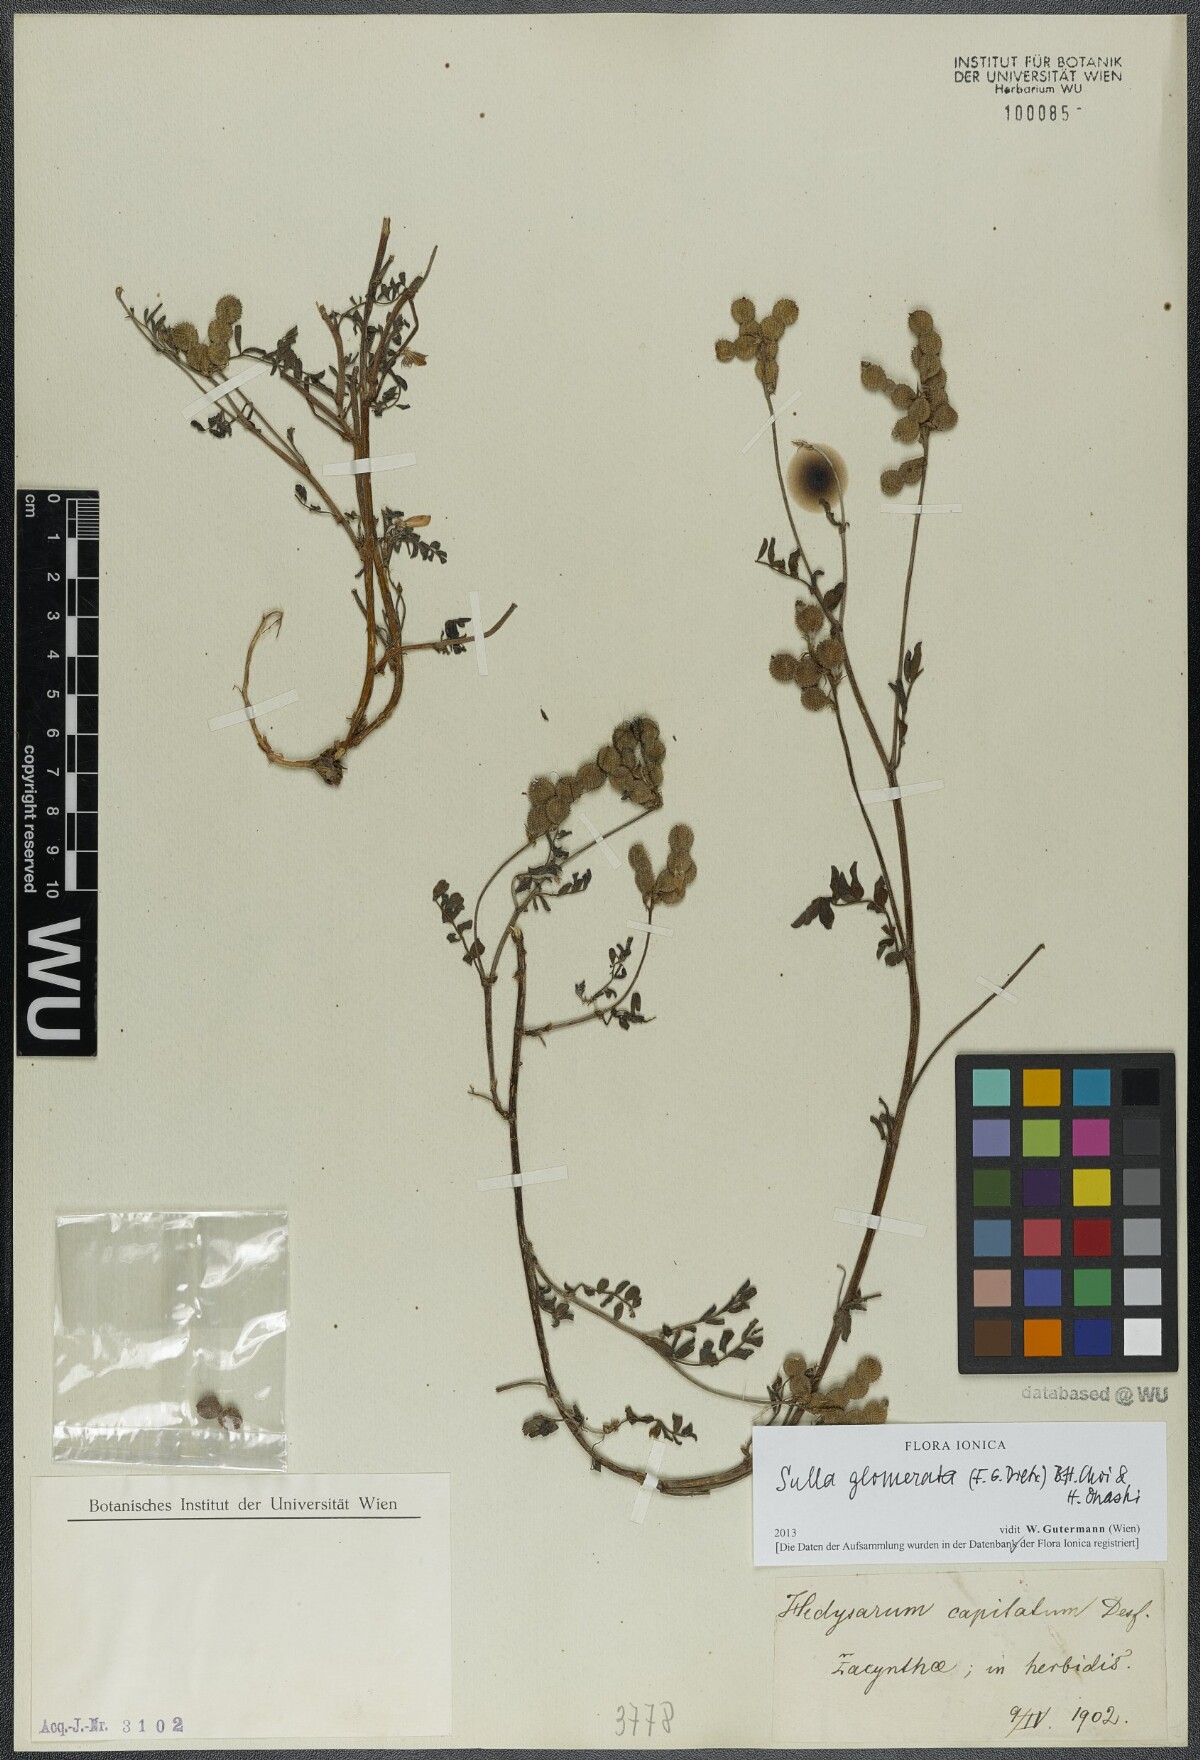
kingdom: Plantae
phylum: Tracheophyta
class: Magnoliopsida
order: Fabales
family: Fabaceae
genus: Sulla
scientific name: Sulla glomerata
